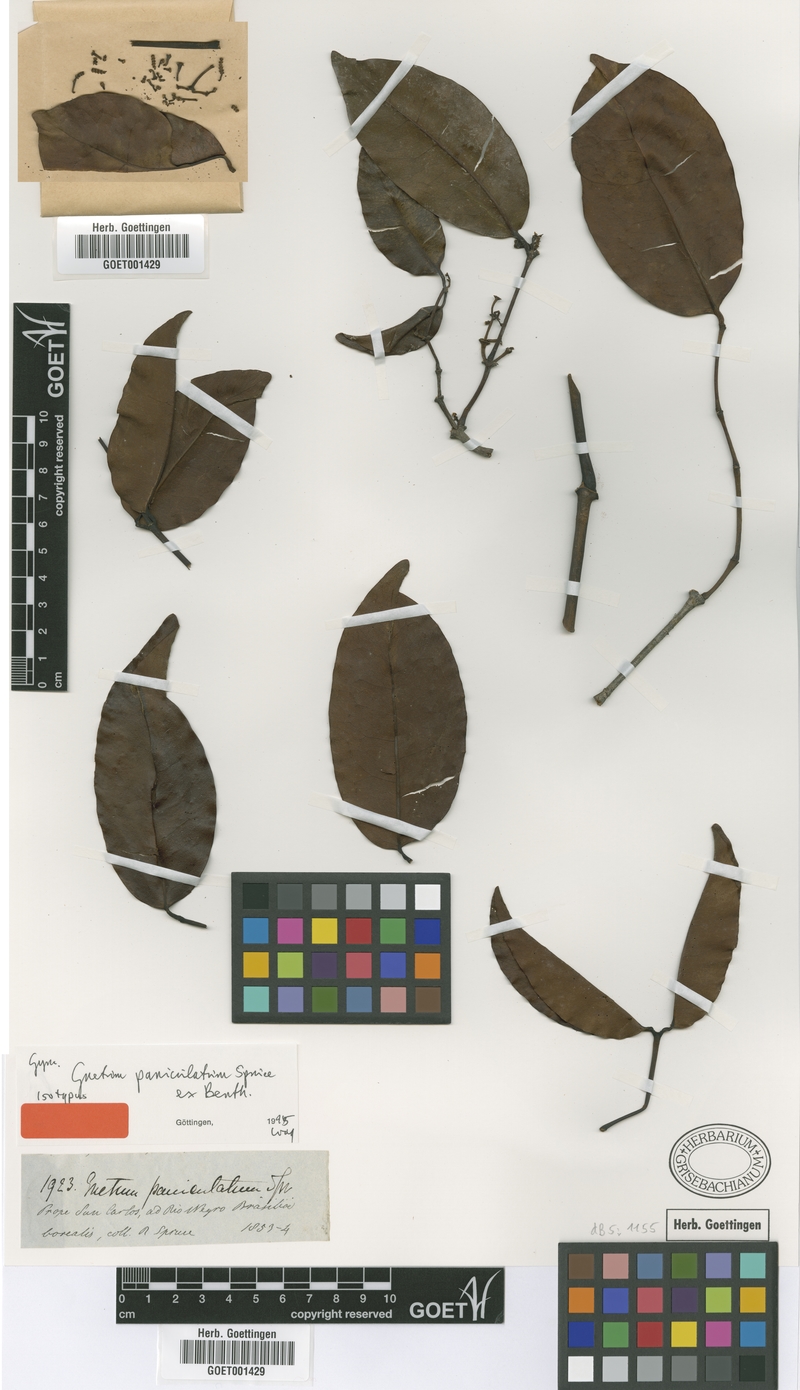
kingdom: Plantae
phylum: Tracheophyta
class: Gnetopsida
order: Gnetales
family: Gnetaceae
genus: Gnetum
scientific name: Gnetum paniculatum
